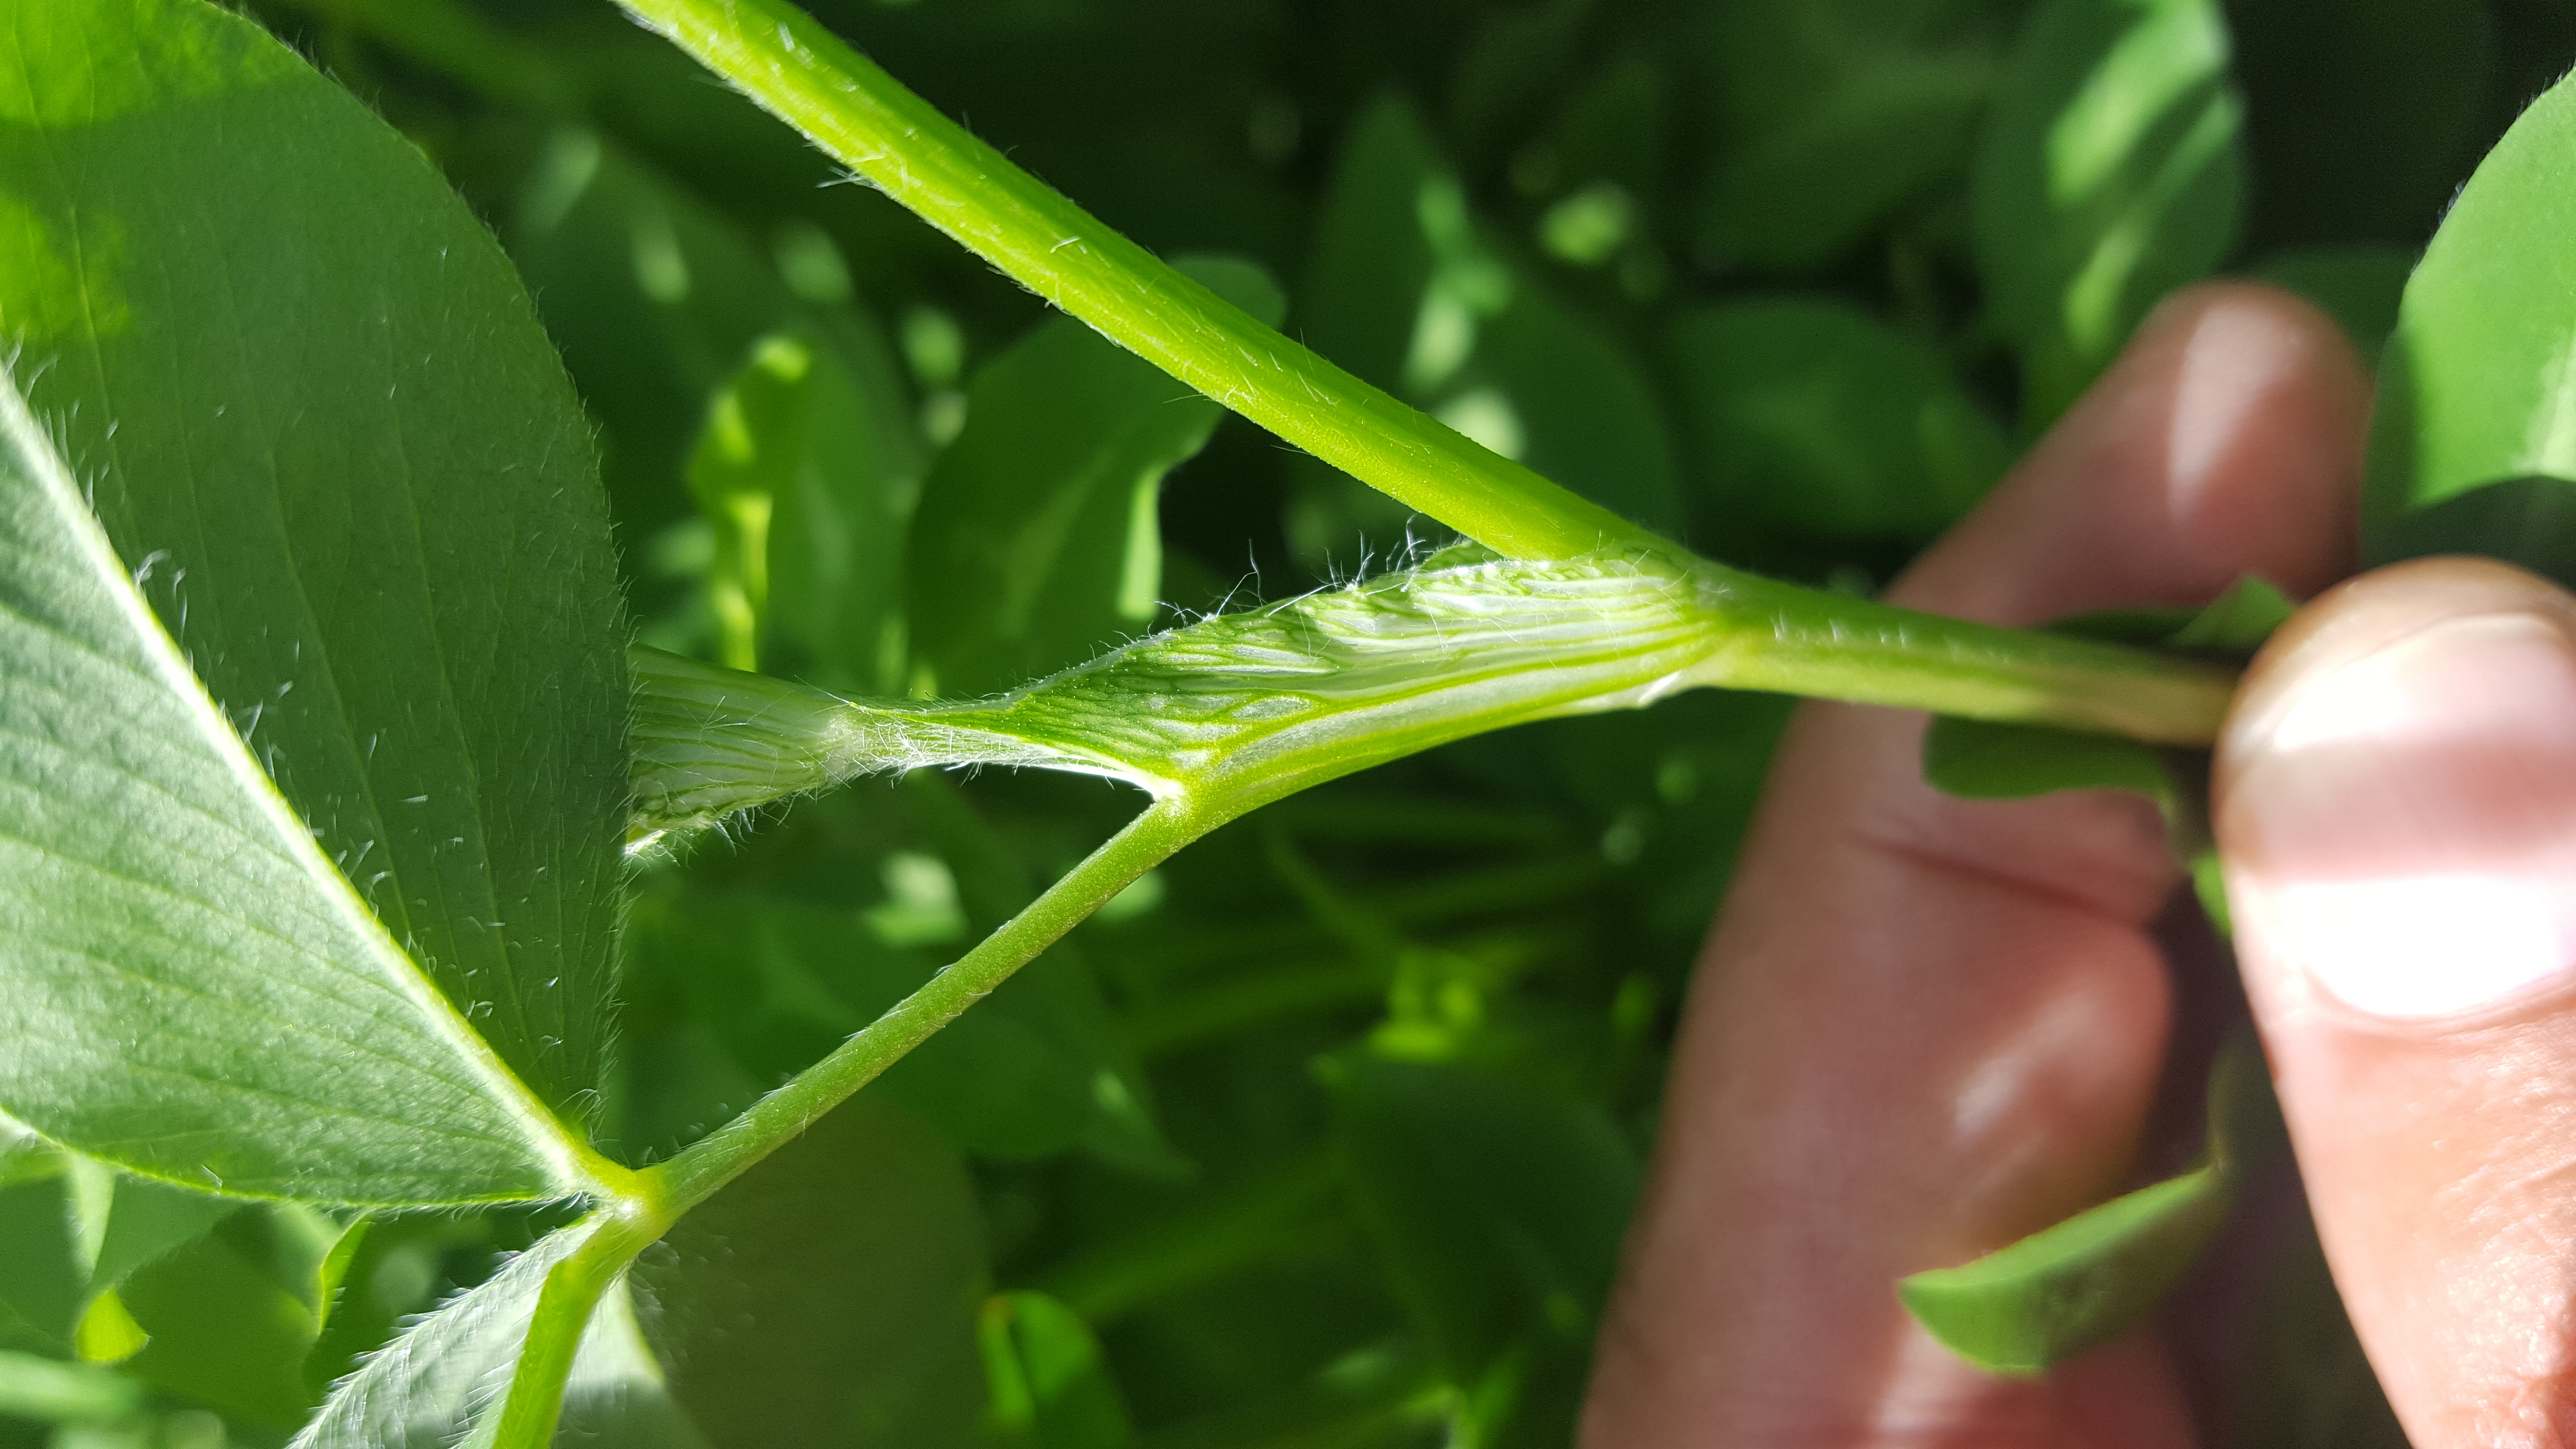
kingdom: Plantae
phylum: Tracheophyta
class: Magnoliopsida
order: Fabales
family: Fabaceae
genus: Trifolium
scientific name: Trifolium pratense
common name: Red clover
